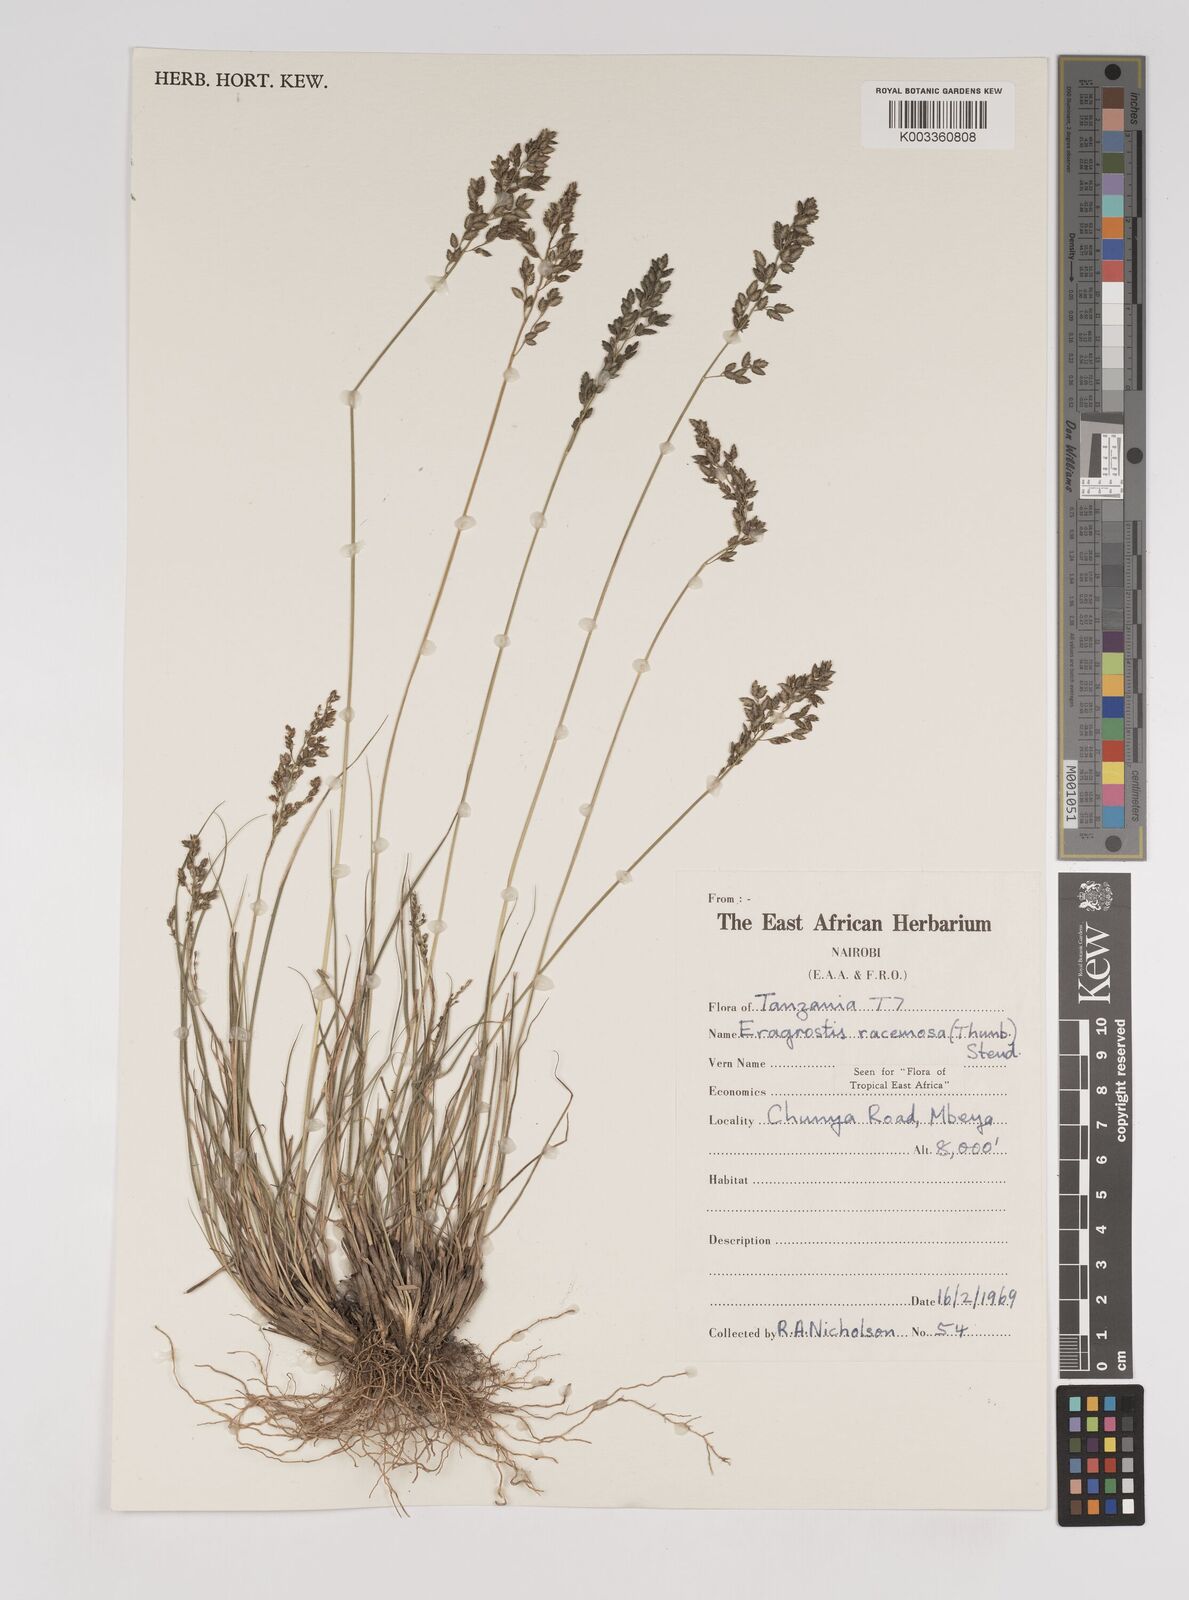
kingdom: Plantae
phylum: Tracheophyta
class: Liliopsida
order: Poales
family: Poaceae
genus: Eragrostis
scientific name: Eragrostis racemosa
